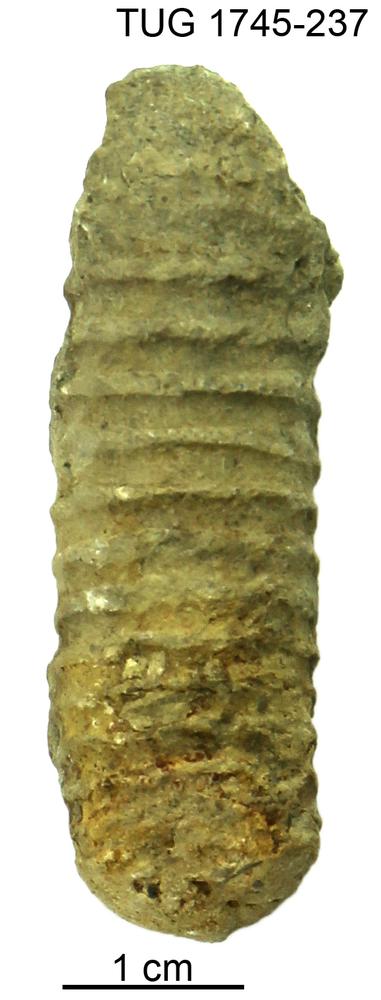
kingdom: Animalia
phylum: Mollusca
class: Cephalopoda
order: Orthocerida
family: Orthoceratidae
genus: Striatocycloceras
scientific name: Striatocycloceras Orthoceras arcuolyratum
